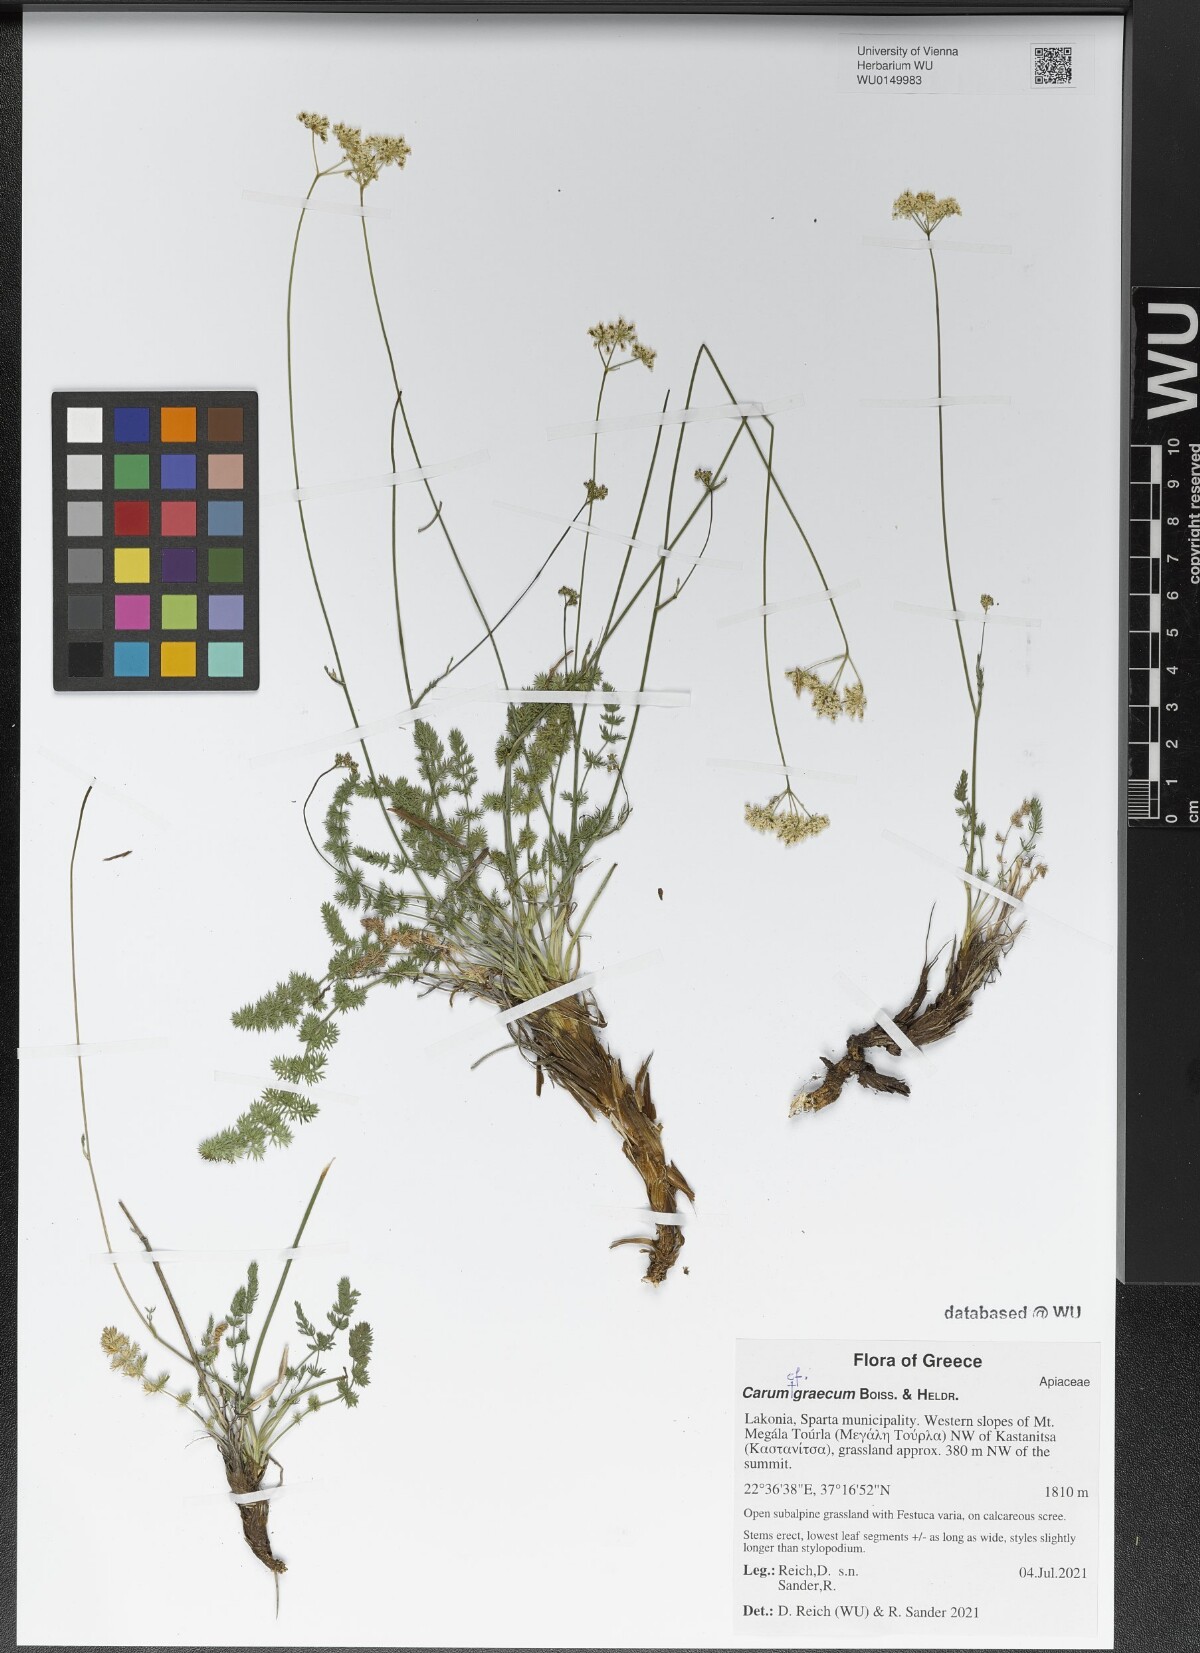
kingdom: Plantae
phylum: Tracheophyta
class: Magnoliopsida
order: Apiales
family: Apiaceae
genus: Carum
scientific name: Carum graecum
